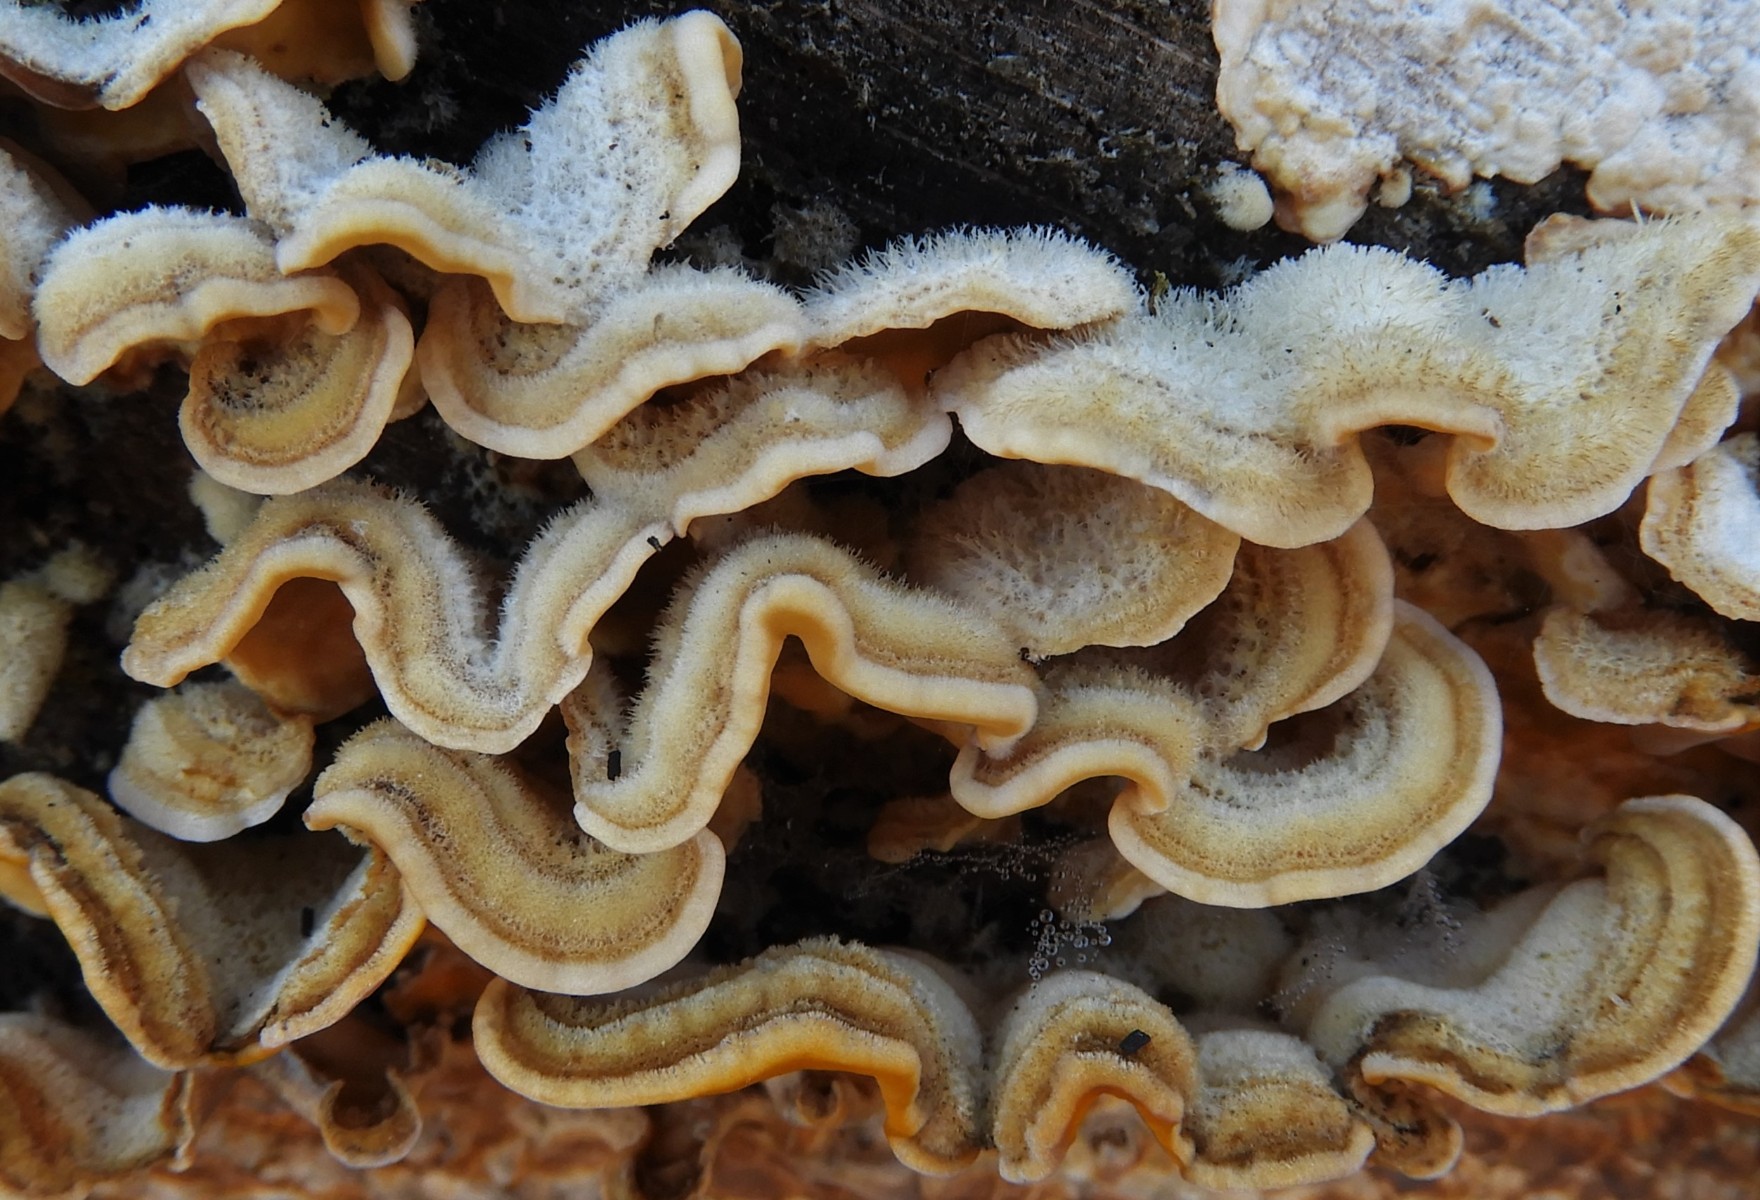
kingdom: Fungi
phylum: Basidiomycota
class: Agaricomycetes
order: Russulales
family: Stereaceae
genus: Stereum
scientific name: Stereum hirsutum
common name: håret lædersvamp
